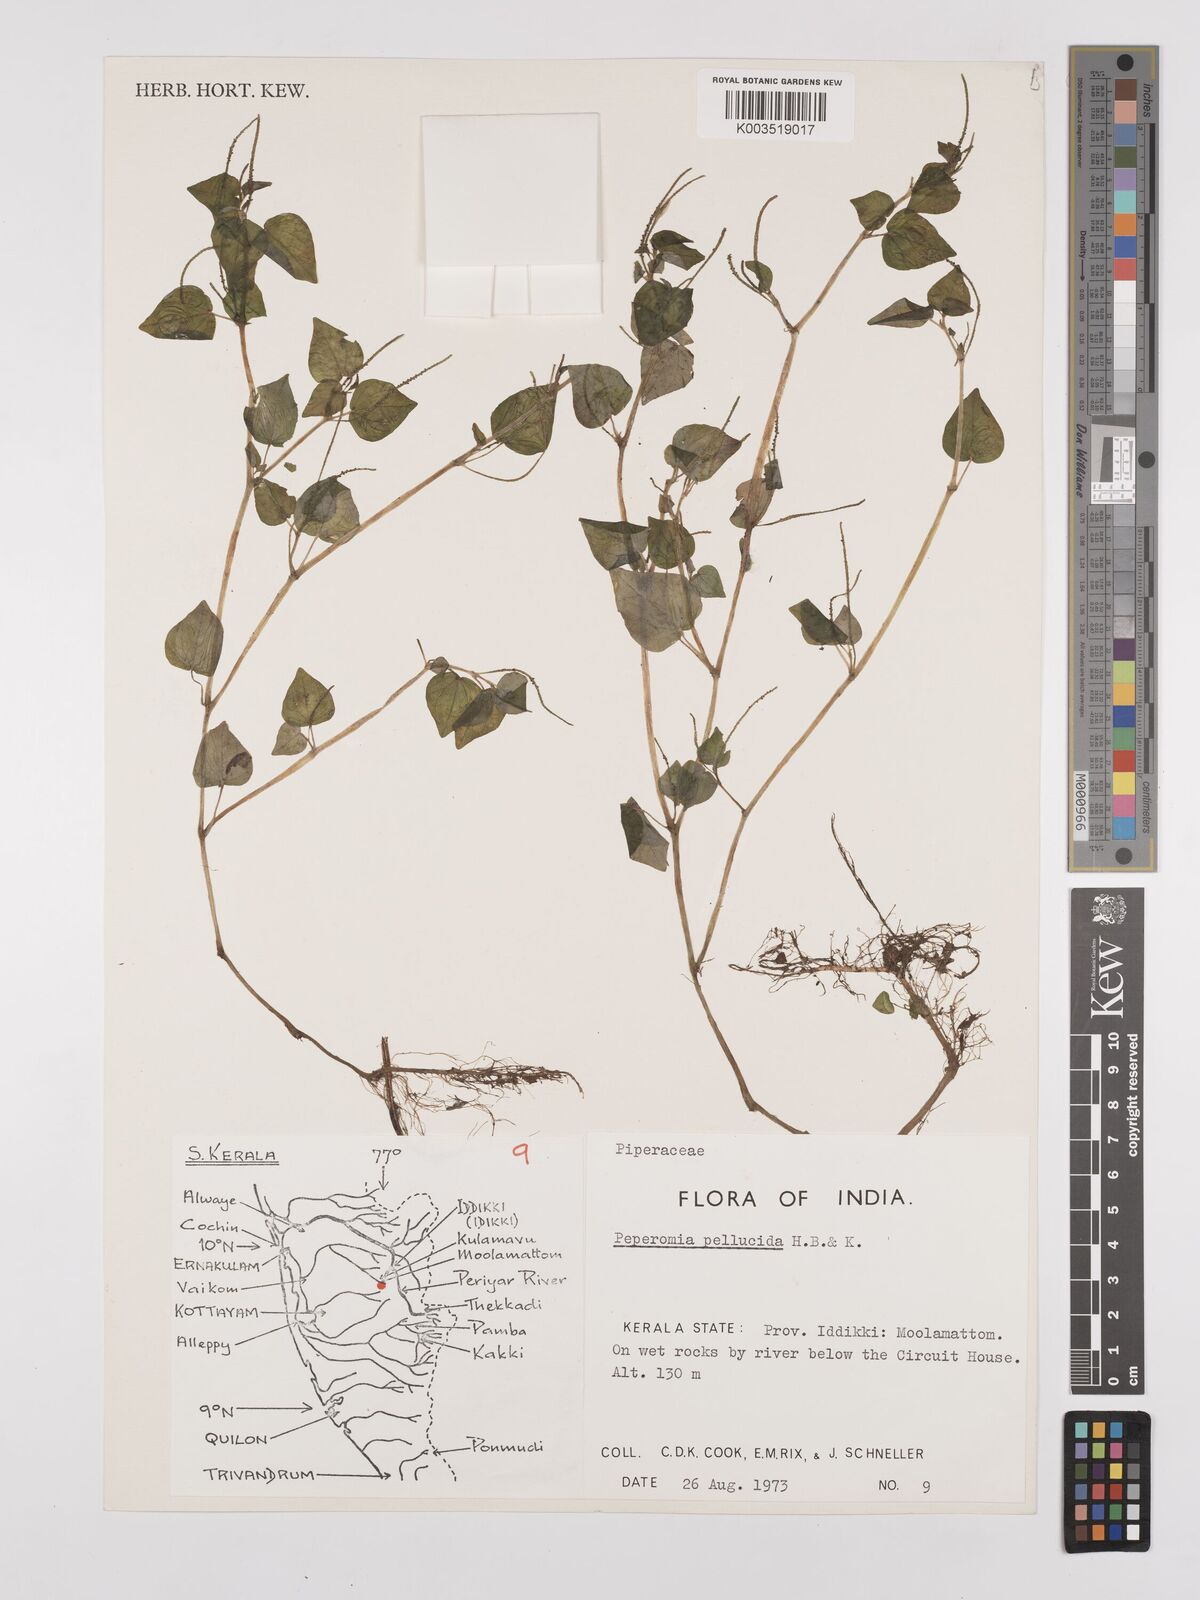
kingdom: Plantae
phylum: Tracheophyta
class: Magnoliopsida
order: Piperales
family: Piperaceae
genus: Peperomia
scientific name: Peperomia pellucida
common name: Man to man
